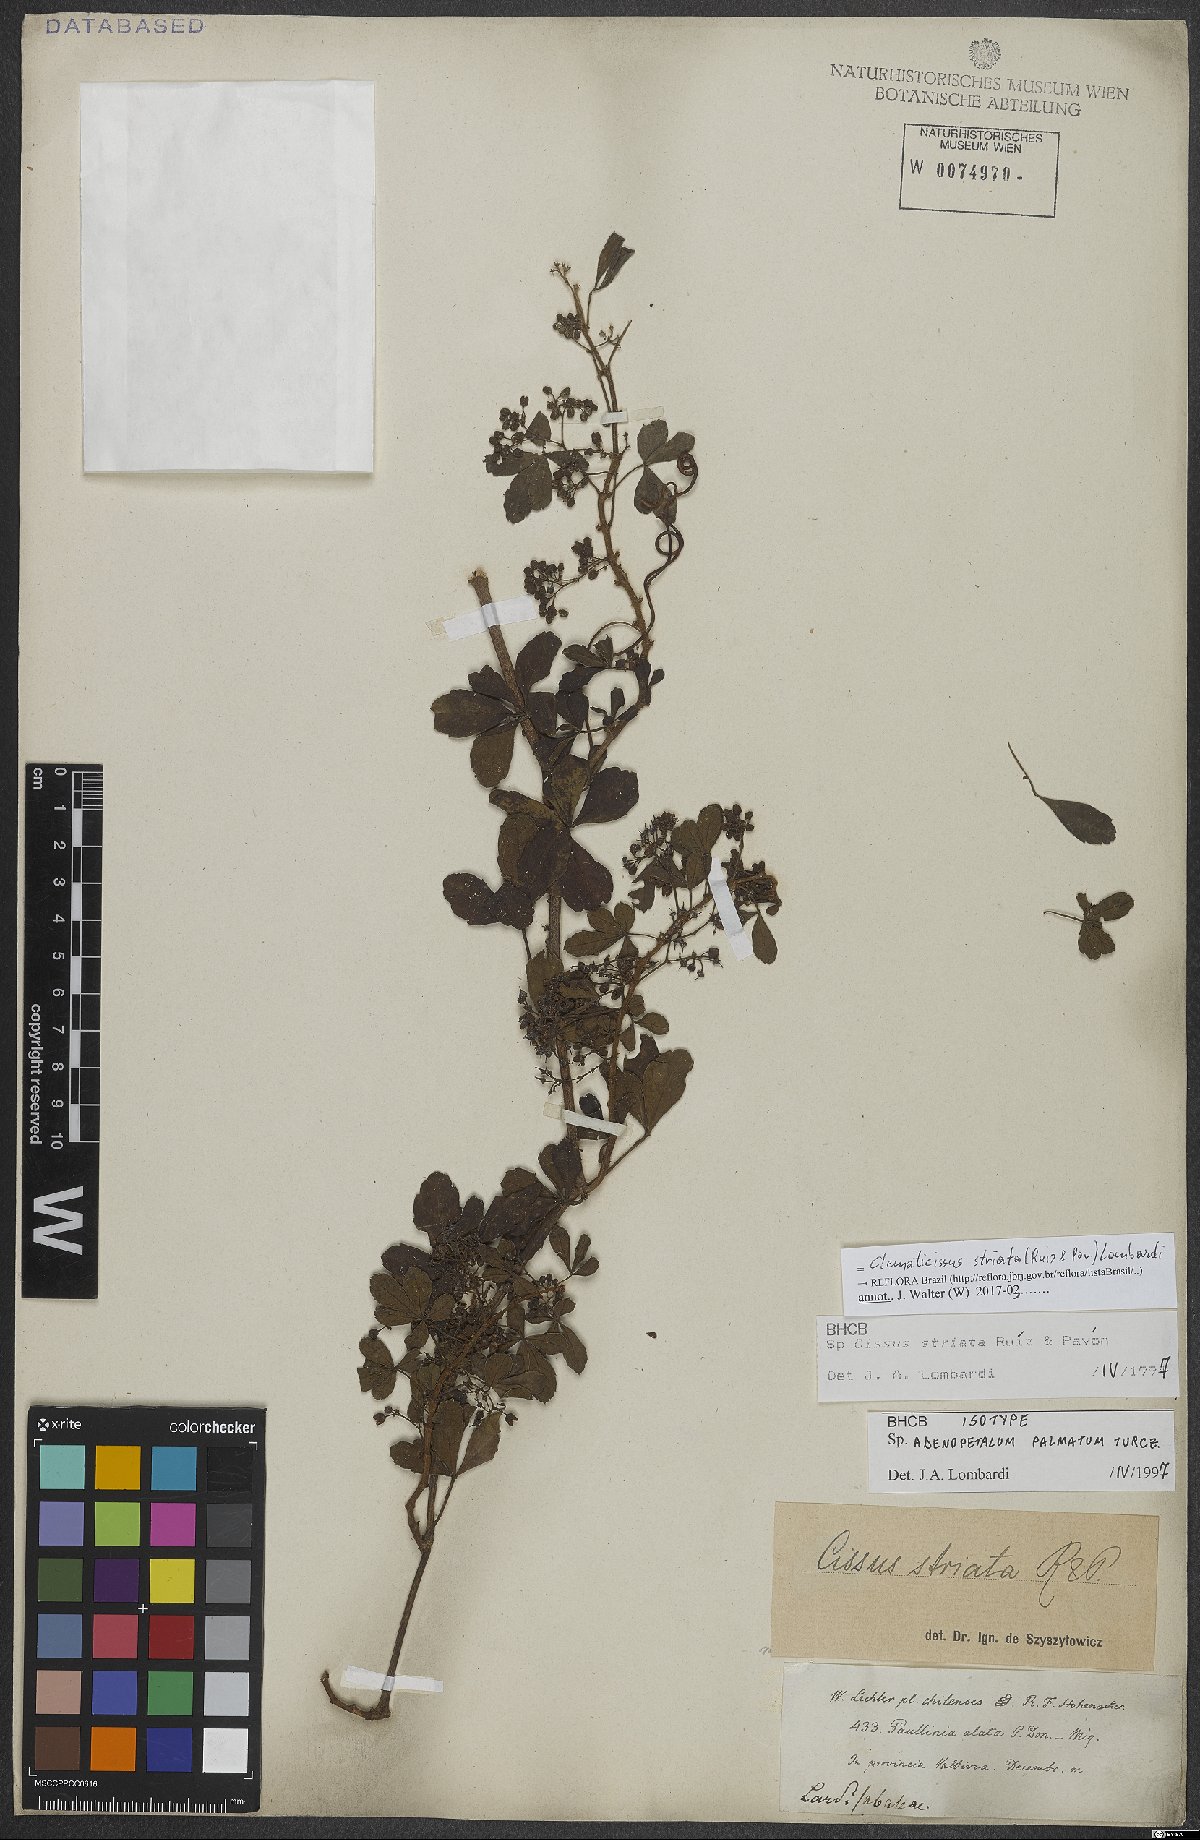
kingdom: Plantae
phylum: Tracheophyta
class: Magnoliopsida
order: Vitales
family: Vitaceae
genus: Clematicissus
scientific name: Clematicissus striata
